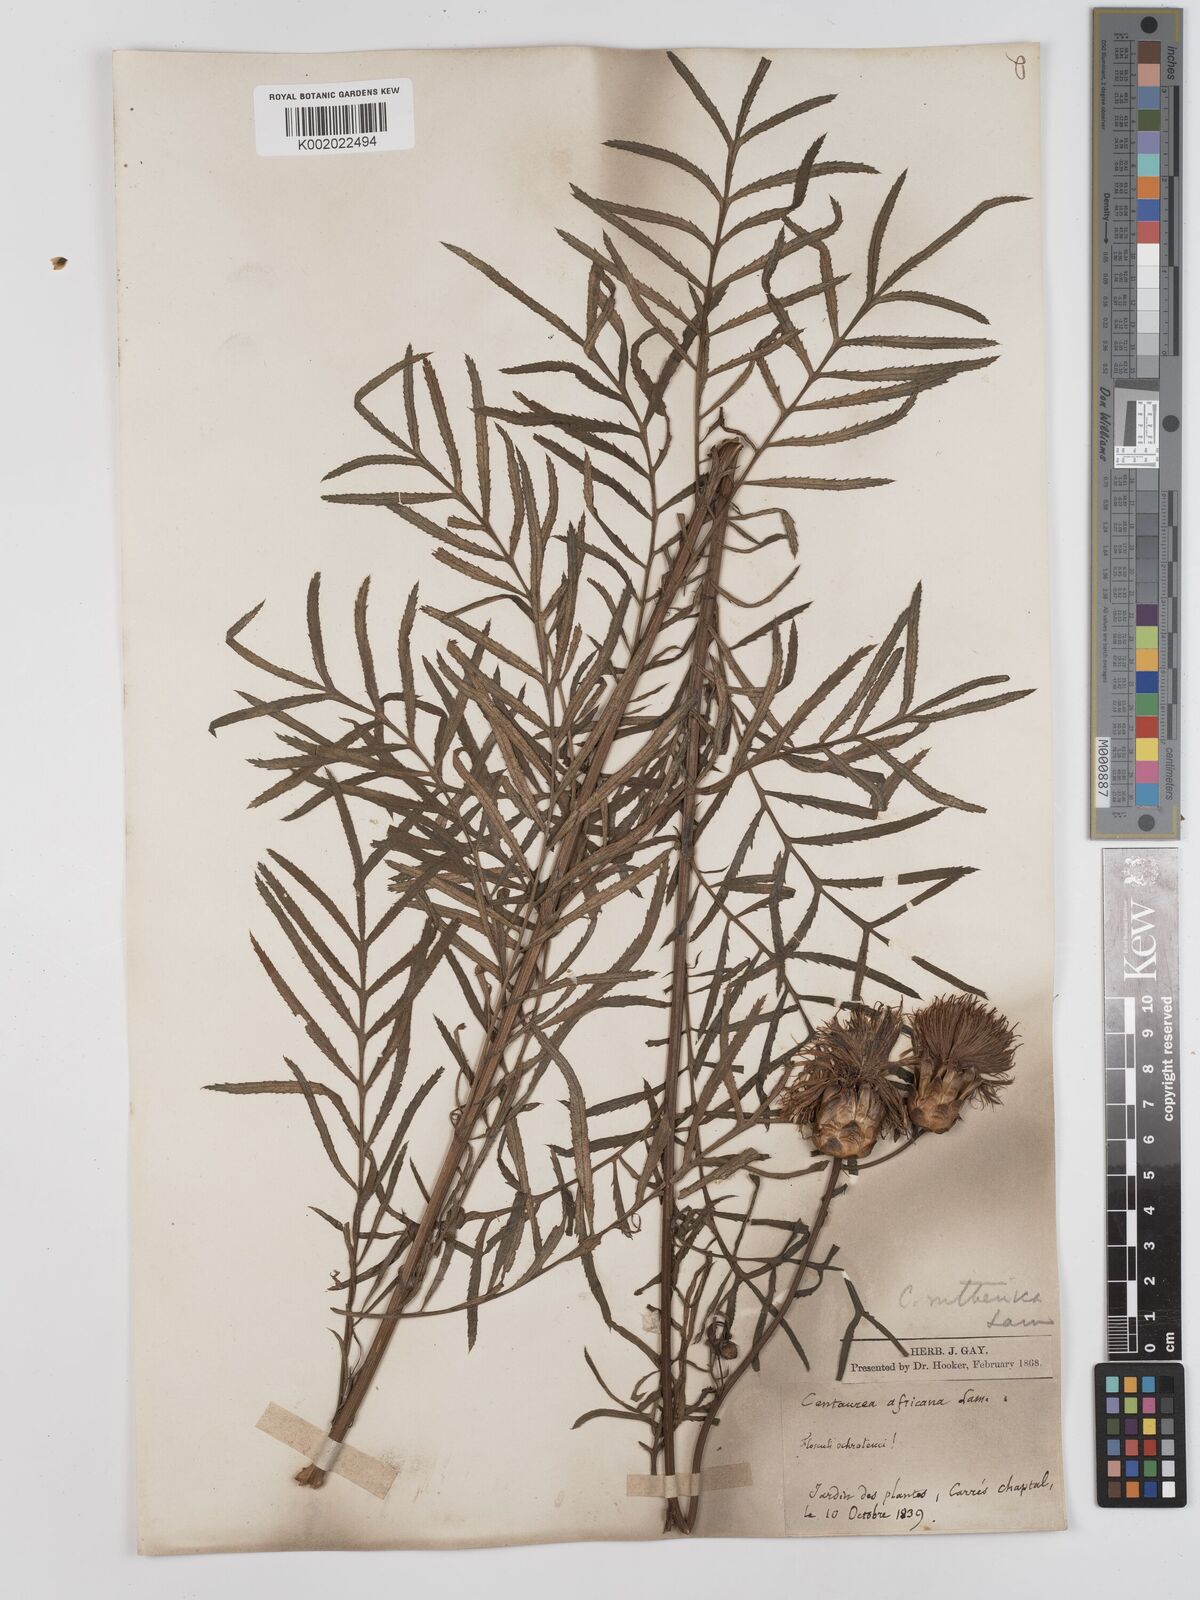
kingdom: Plantae
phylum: Tracheophyta
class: Magnoliopsida
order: Asterales
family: Asteraceae
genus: Rhaponticoides
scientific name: Rhaponticoides ruthenica
